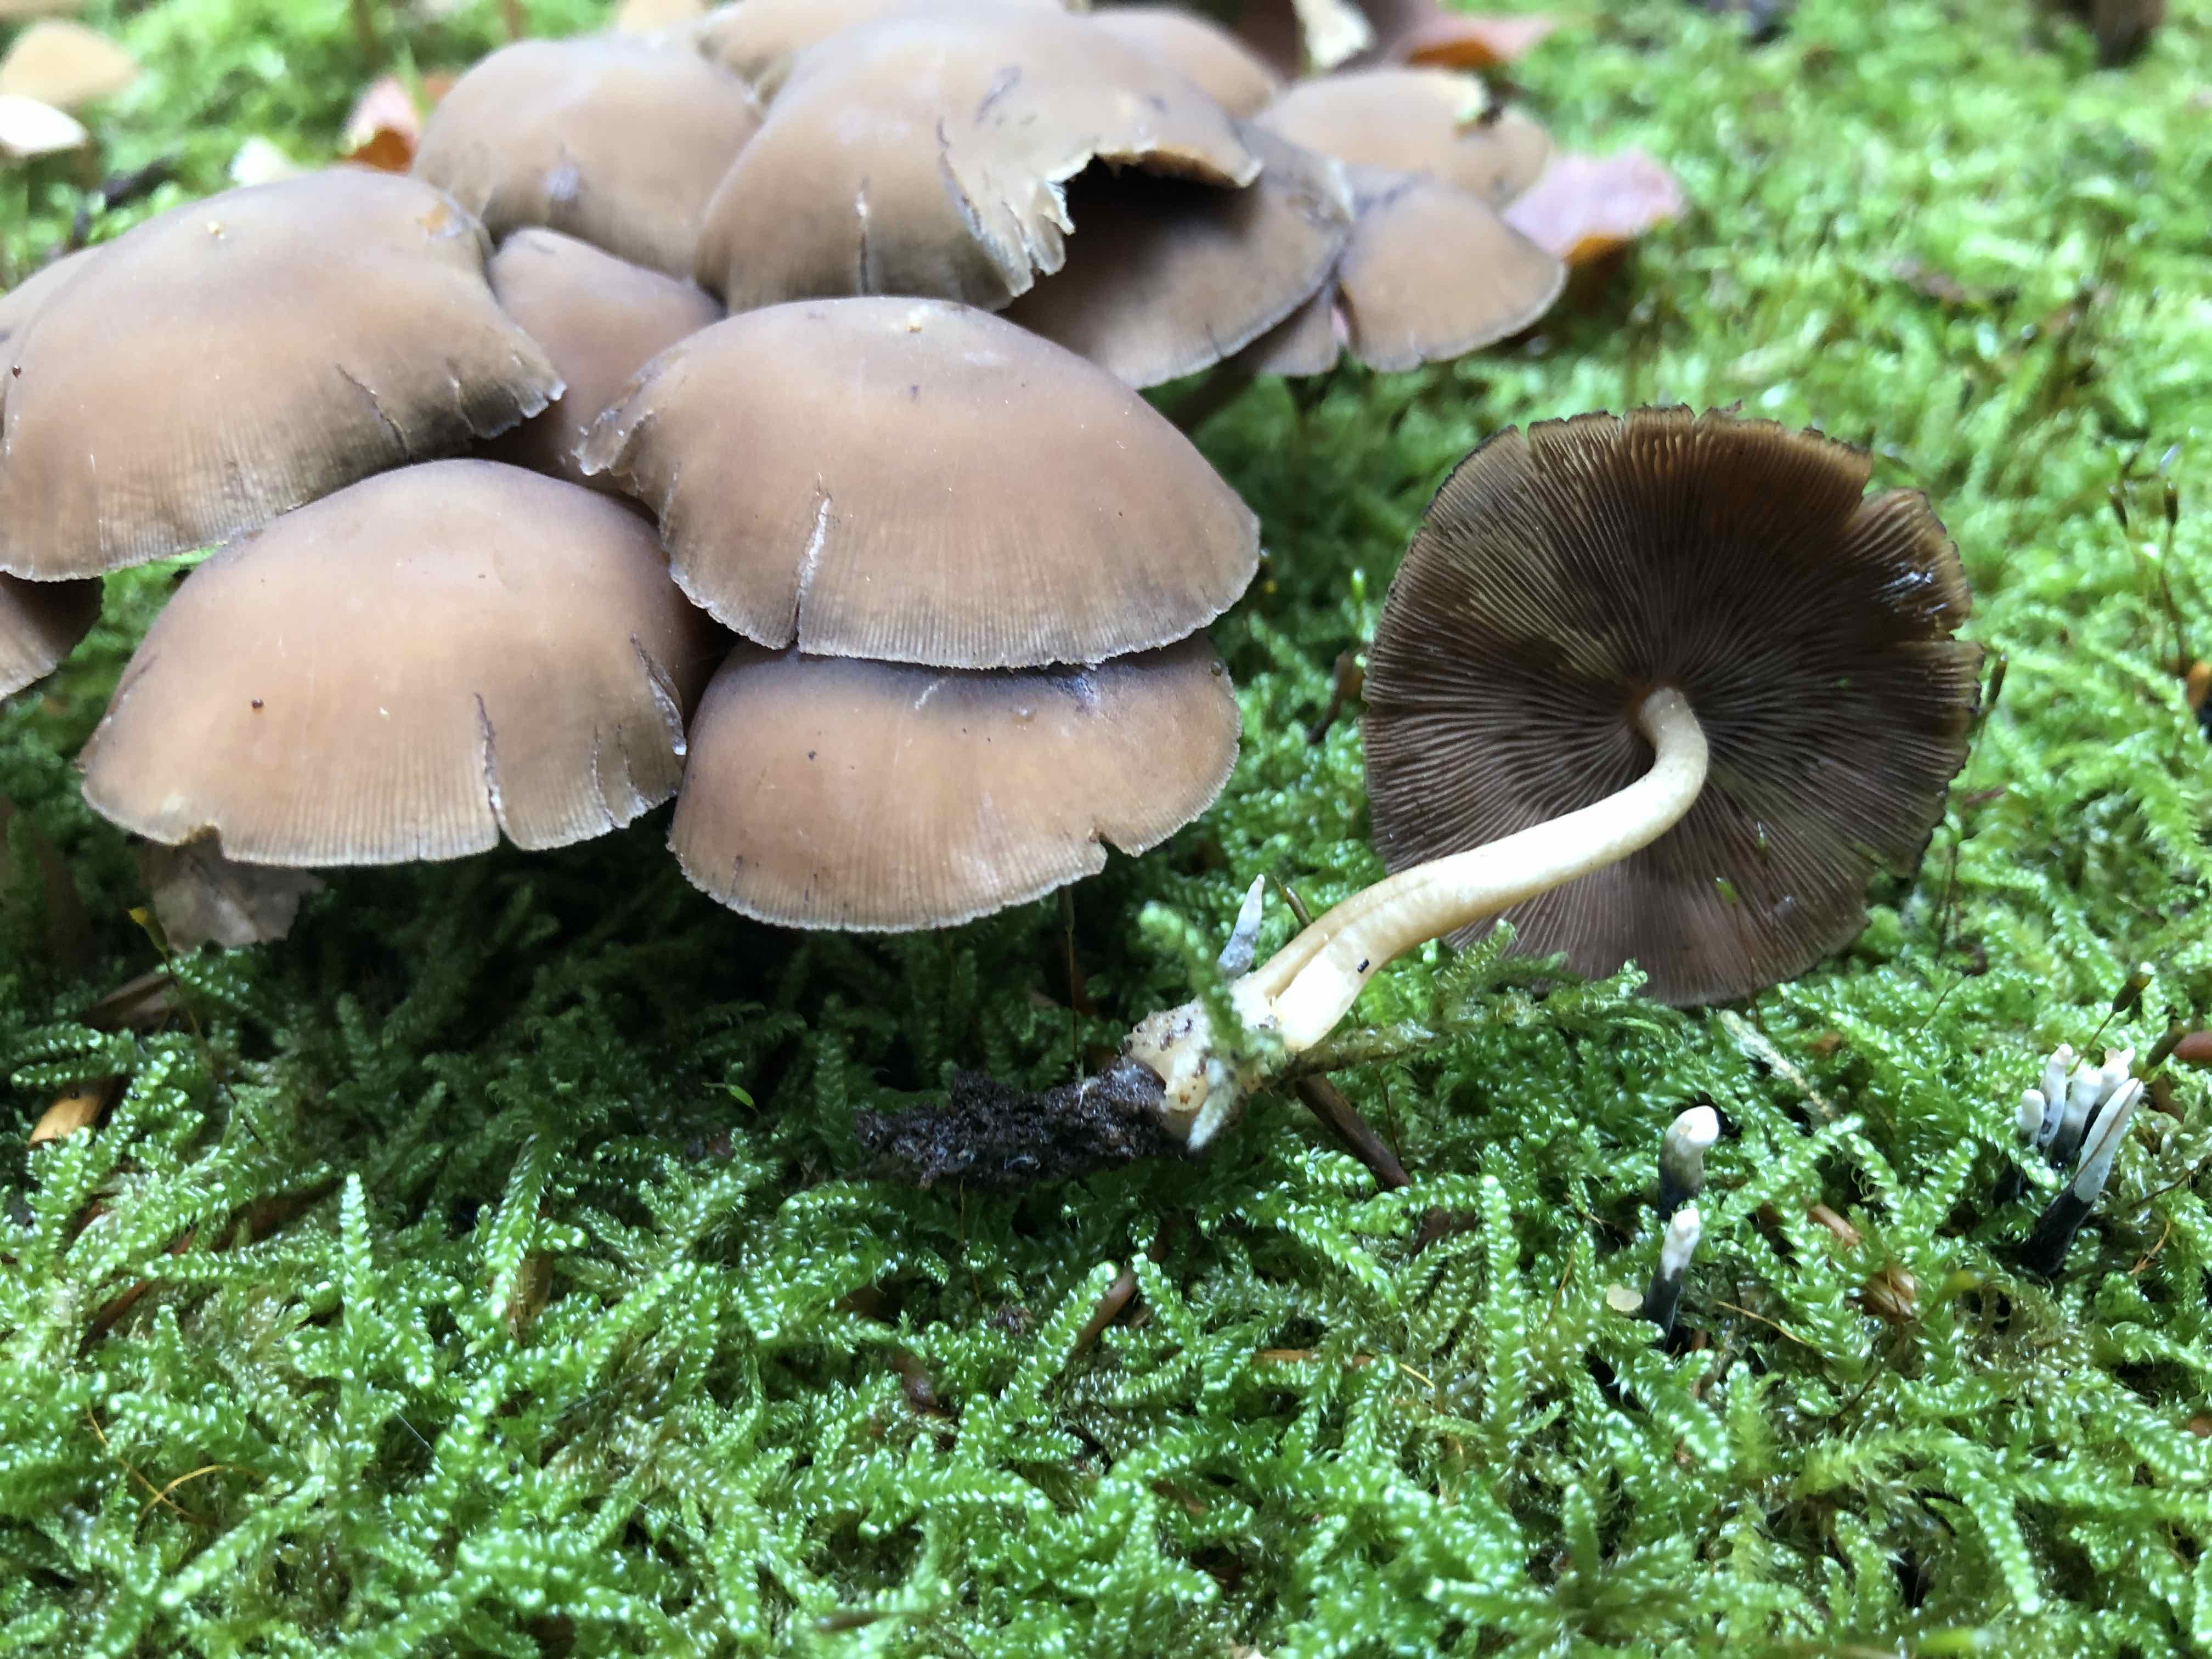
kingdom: Fungi
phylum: Basidiomycota
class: Agaricomycetes
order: Agaricales
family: Psathyrellaceae
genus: Psathyrella
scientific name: Psathyrella piluliformis
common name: lysstokket mørkhat
